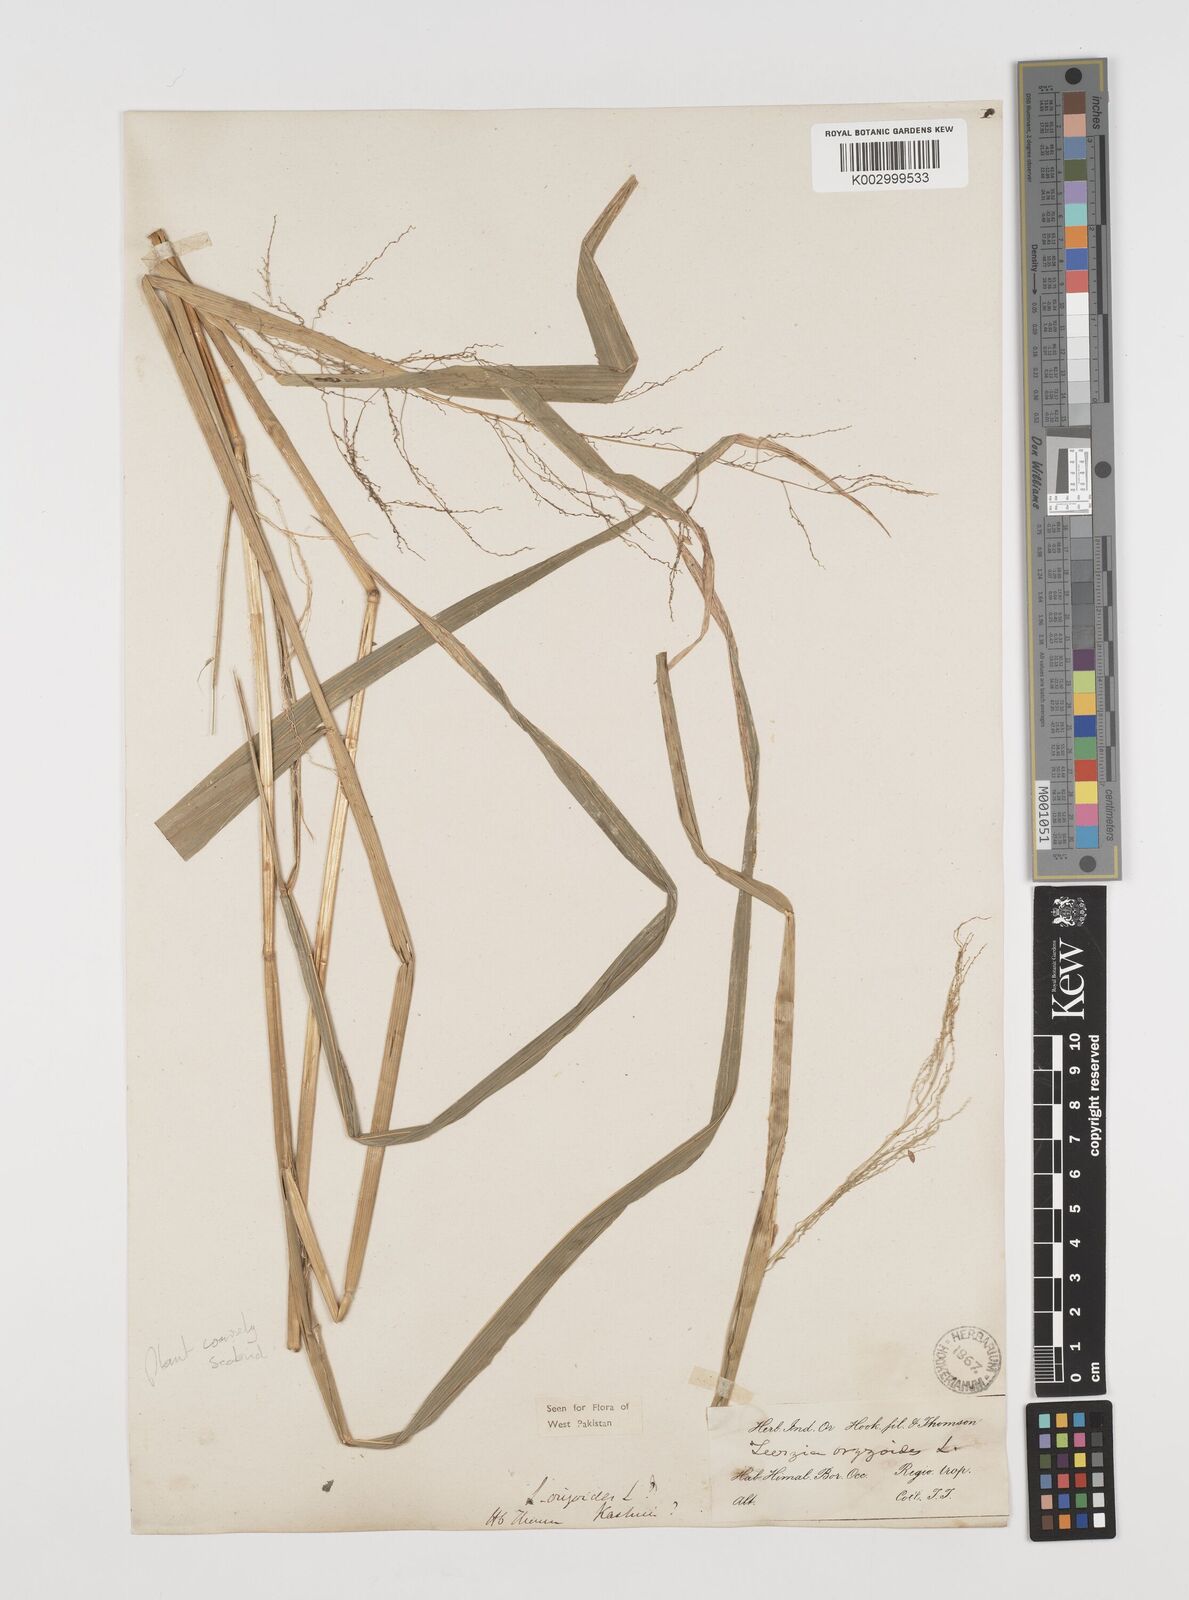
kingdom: Plantae
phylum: Tracheophyta
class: Liliopsida
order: Poales
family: Poaceae
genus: Leersia
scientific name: Leersia oryzoides
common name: Cut-grass
